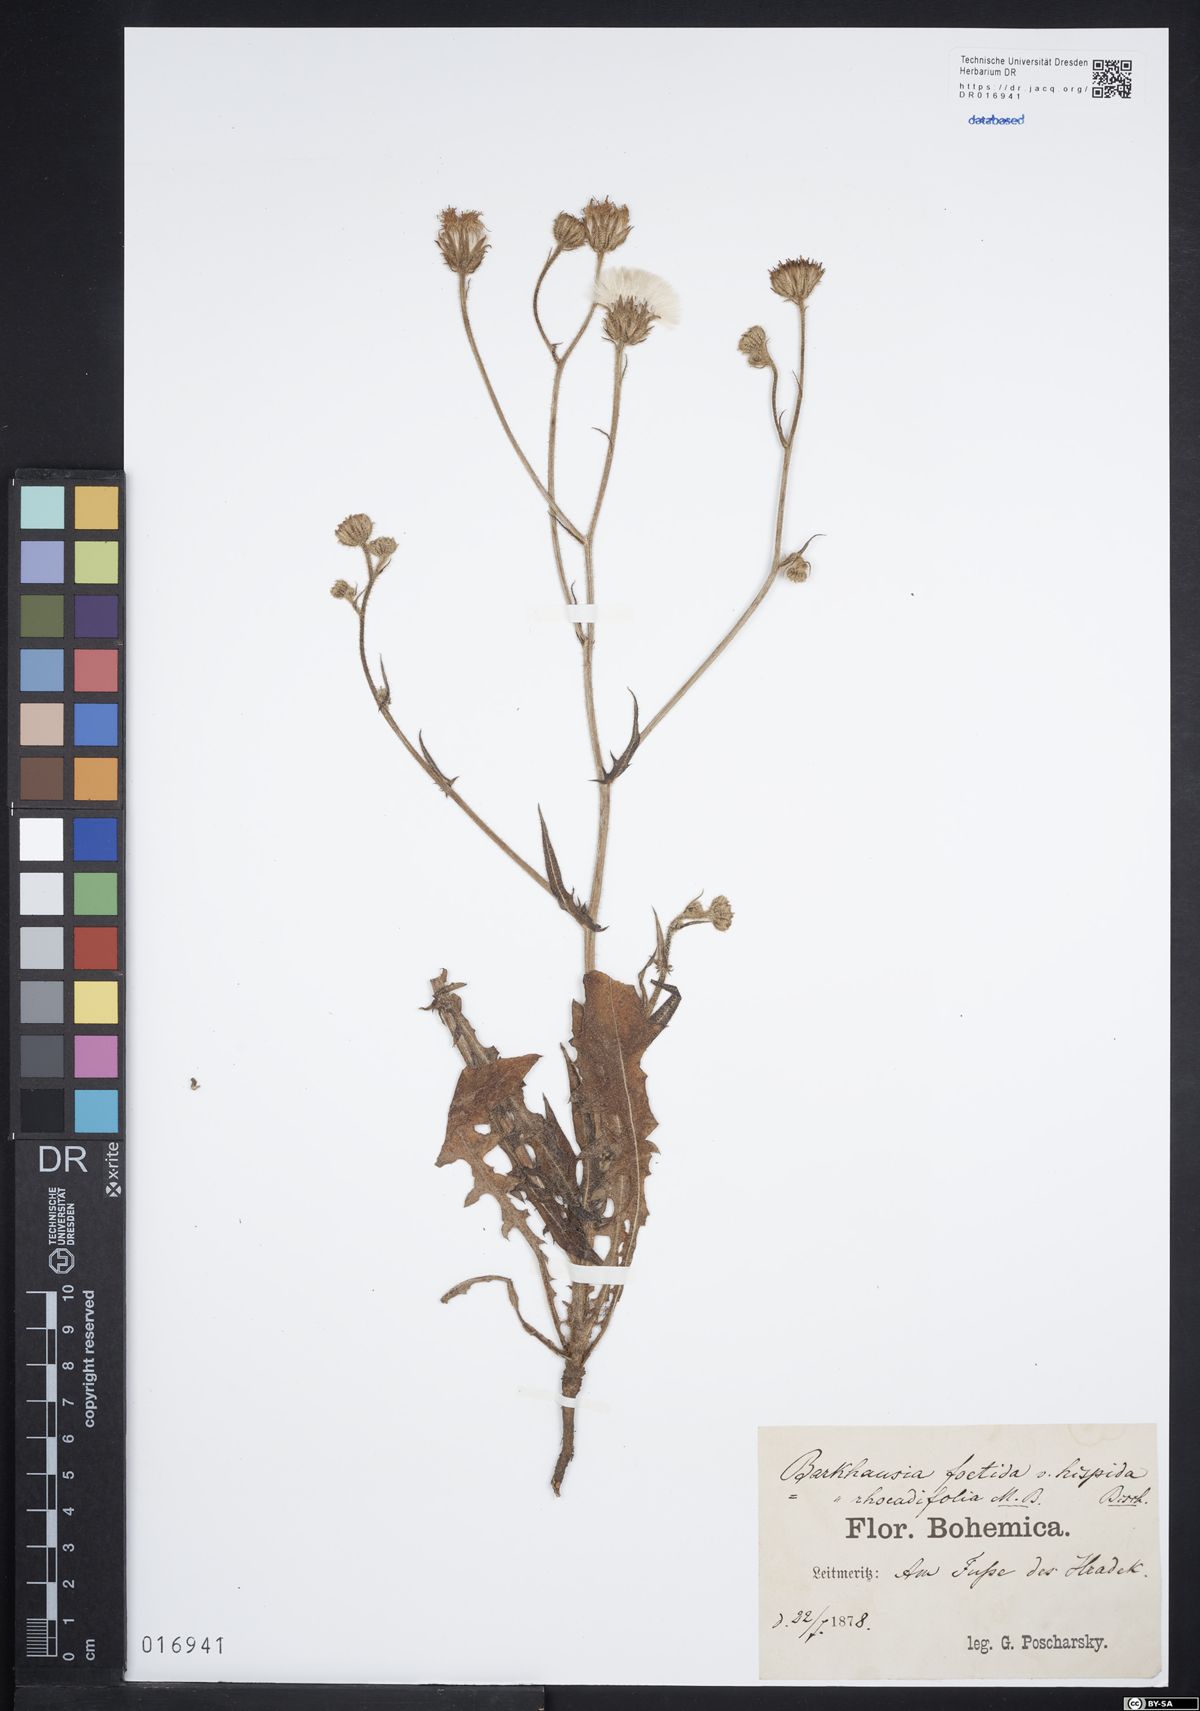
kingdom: Plantae
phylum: Tracheophyta
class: Magnoliopsida
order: Asterales
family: Asteraceae
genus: Crepis
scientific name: Crepis foetida
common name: Stinking hawk's-beard
